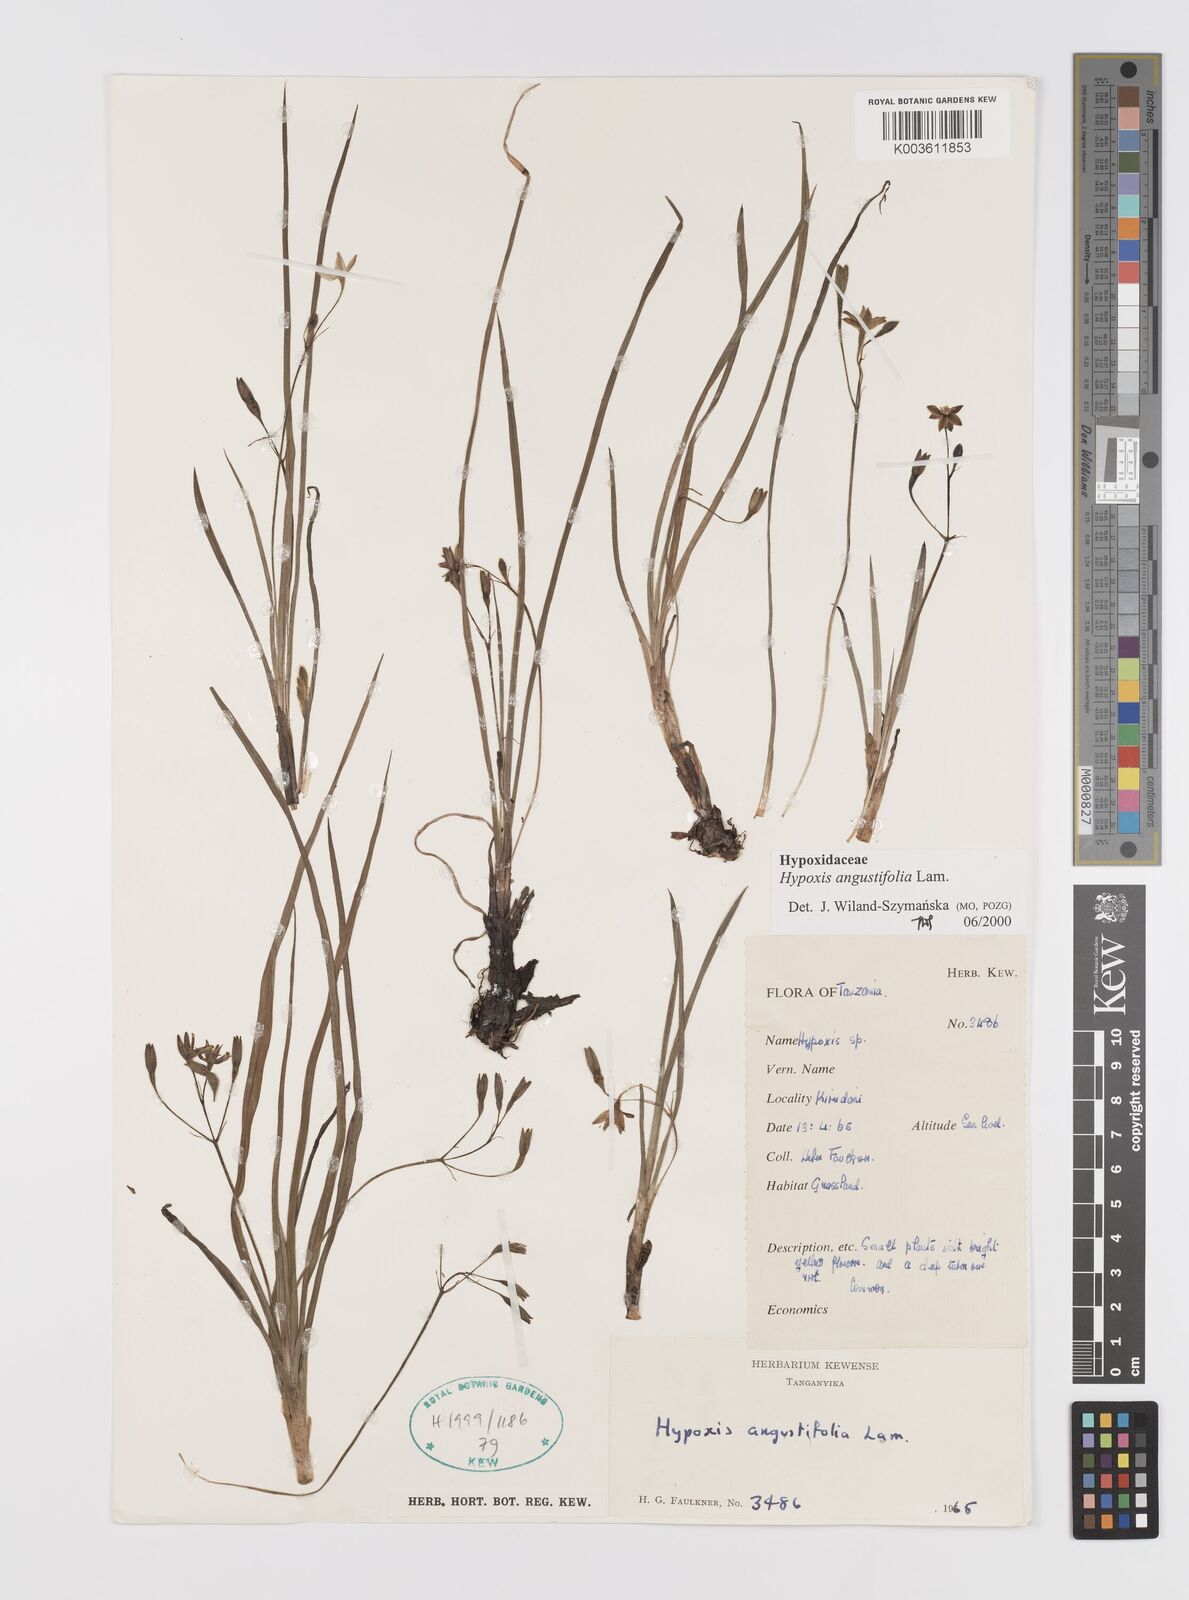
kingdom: Plantae
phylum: Tracheophyta
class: Liliopsida
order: Asparagales
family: Hypoxidaceae
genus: Hypoxis
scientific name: Hypoxis angustifolia
